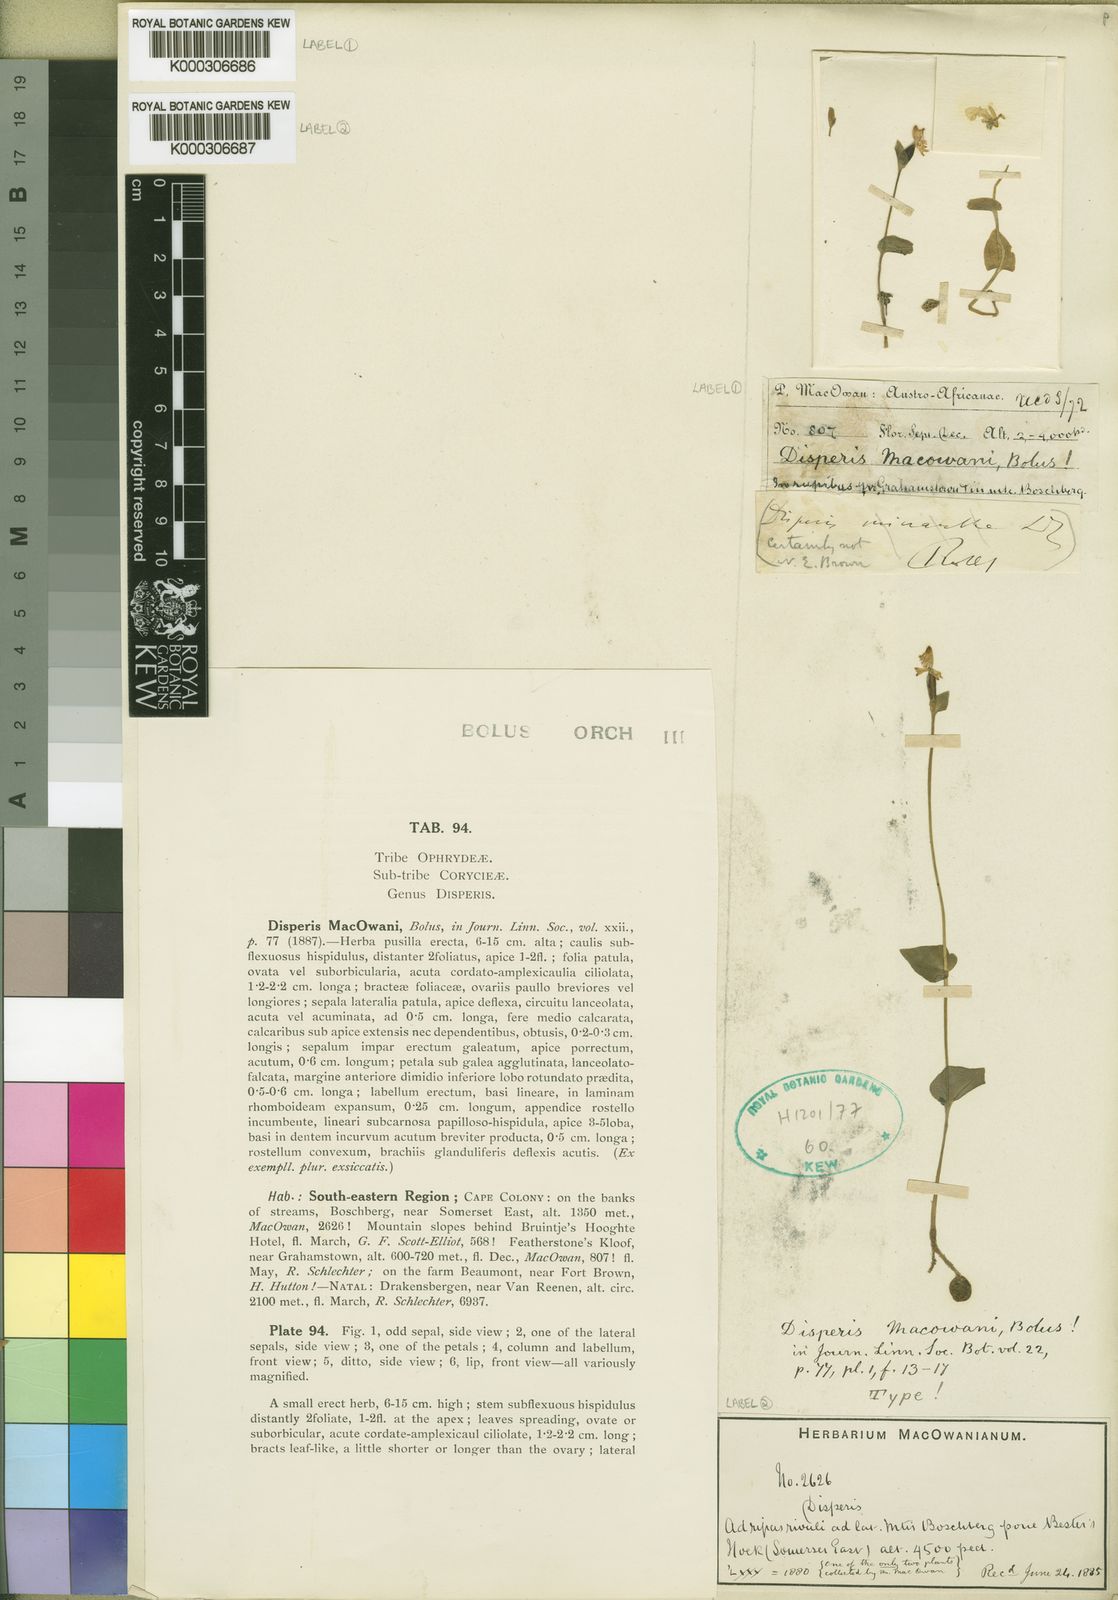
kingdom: Plantae
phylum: Tracheophyta
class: Liliopsida
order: Asparagales
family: Orchidaceae
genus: Disperis
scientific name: Disperis macowanii
